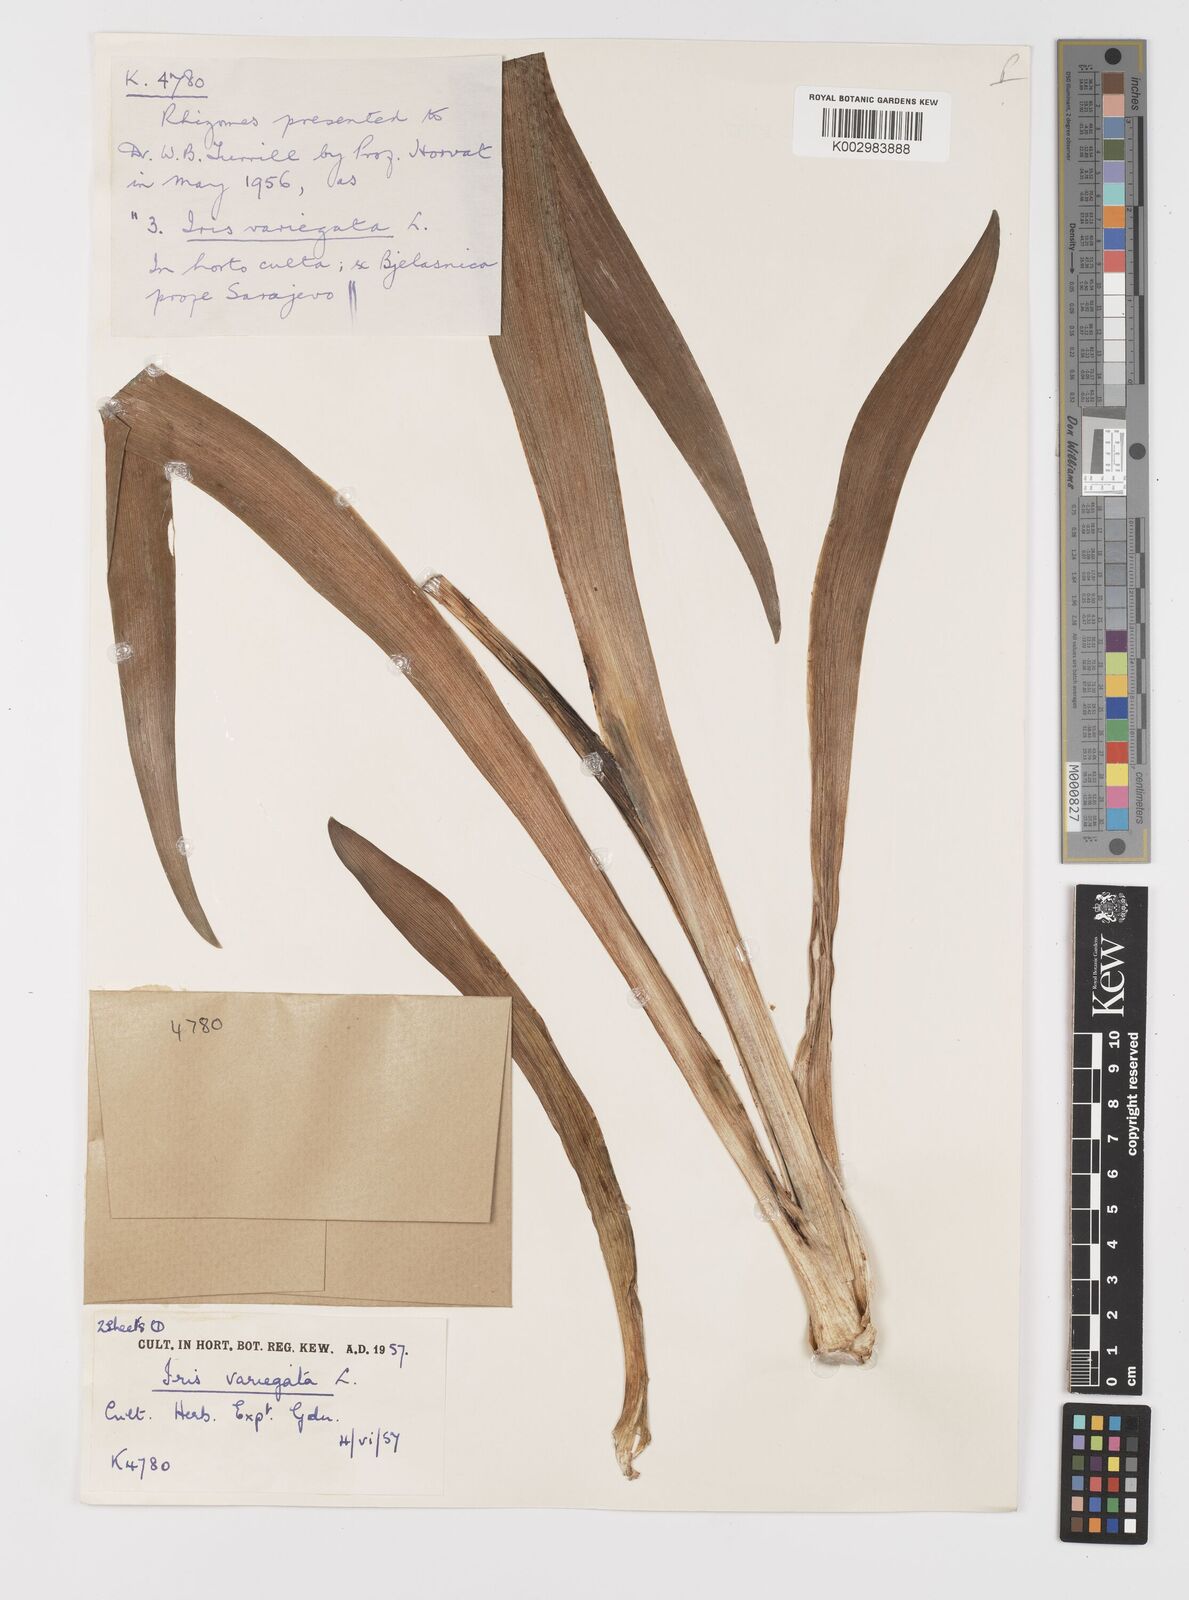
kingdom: Plantae
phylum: Tracheophyta
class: Liliopsida
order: Asparagales
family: Iridaceae
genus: Iris
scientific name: Iris variegata
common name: Hungarian iris
